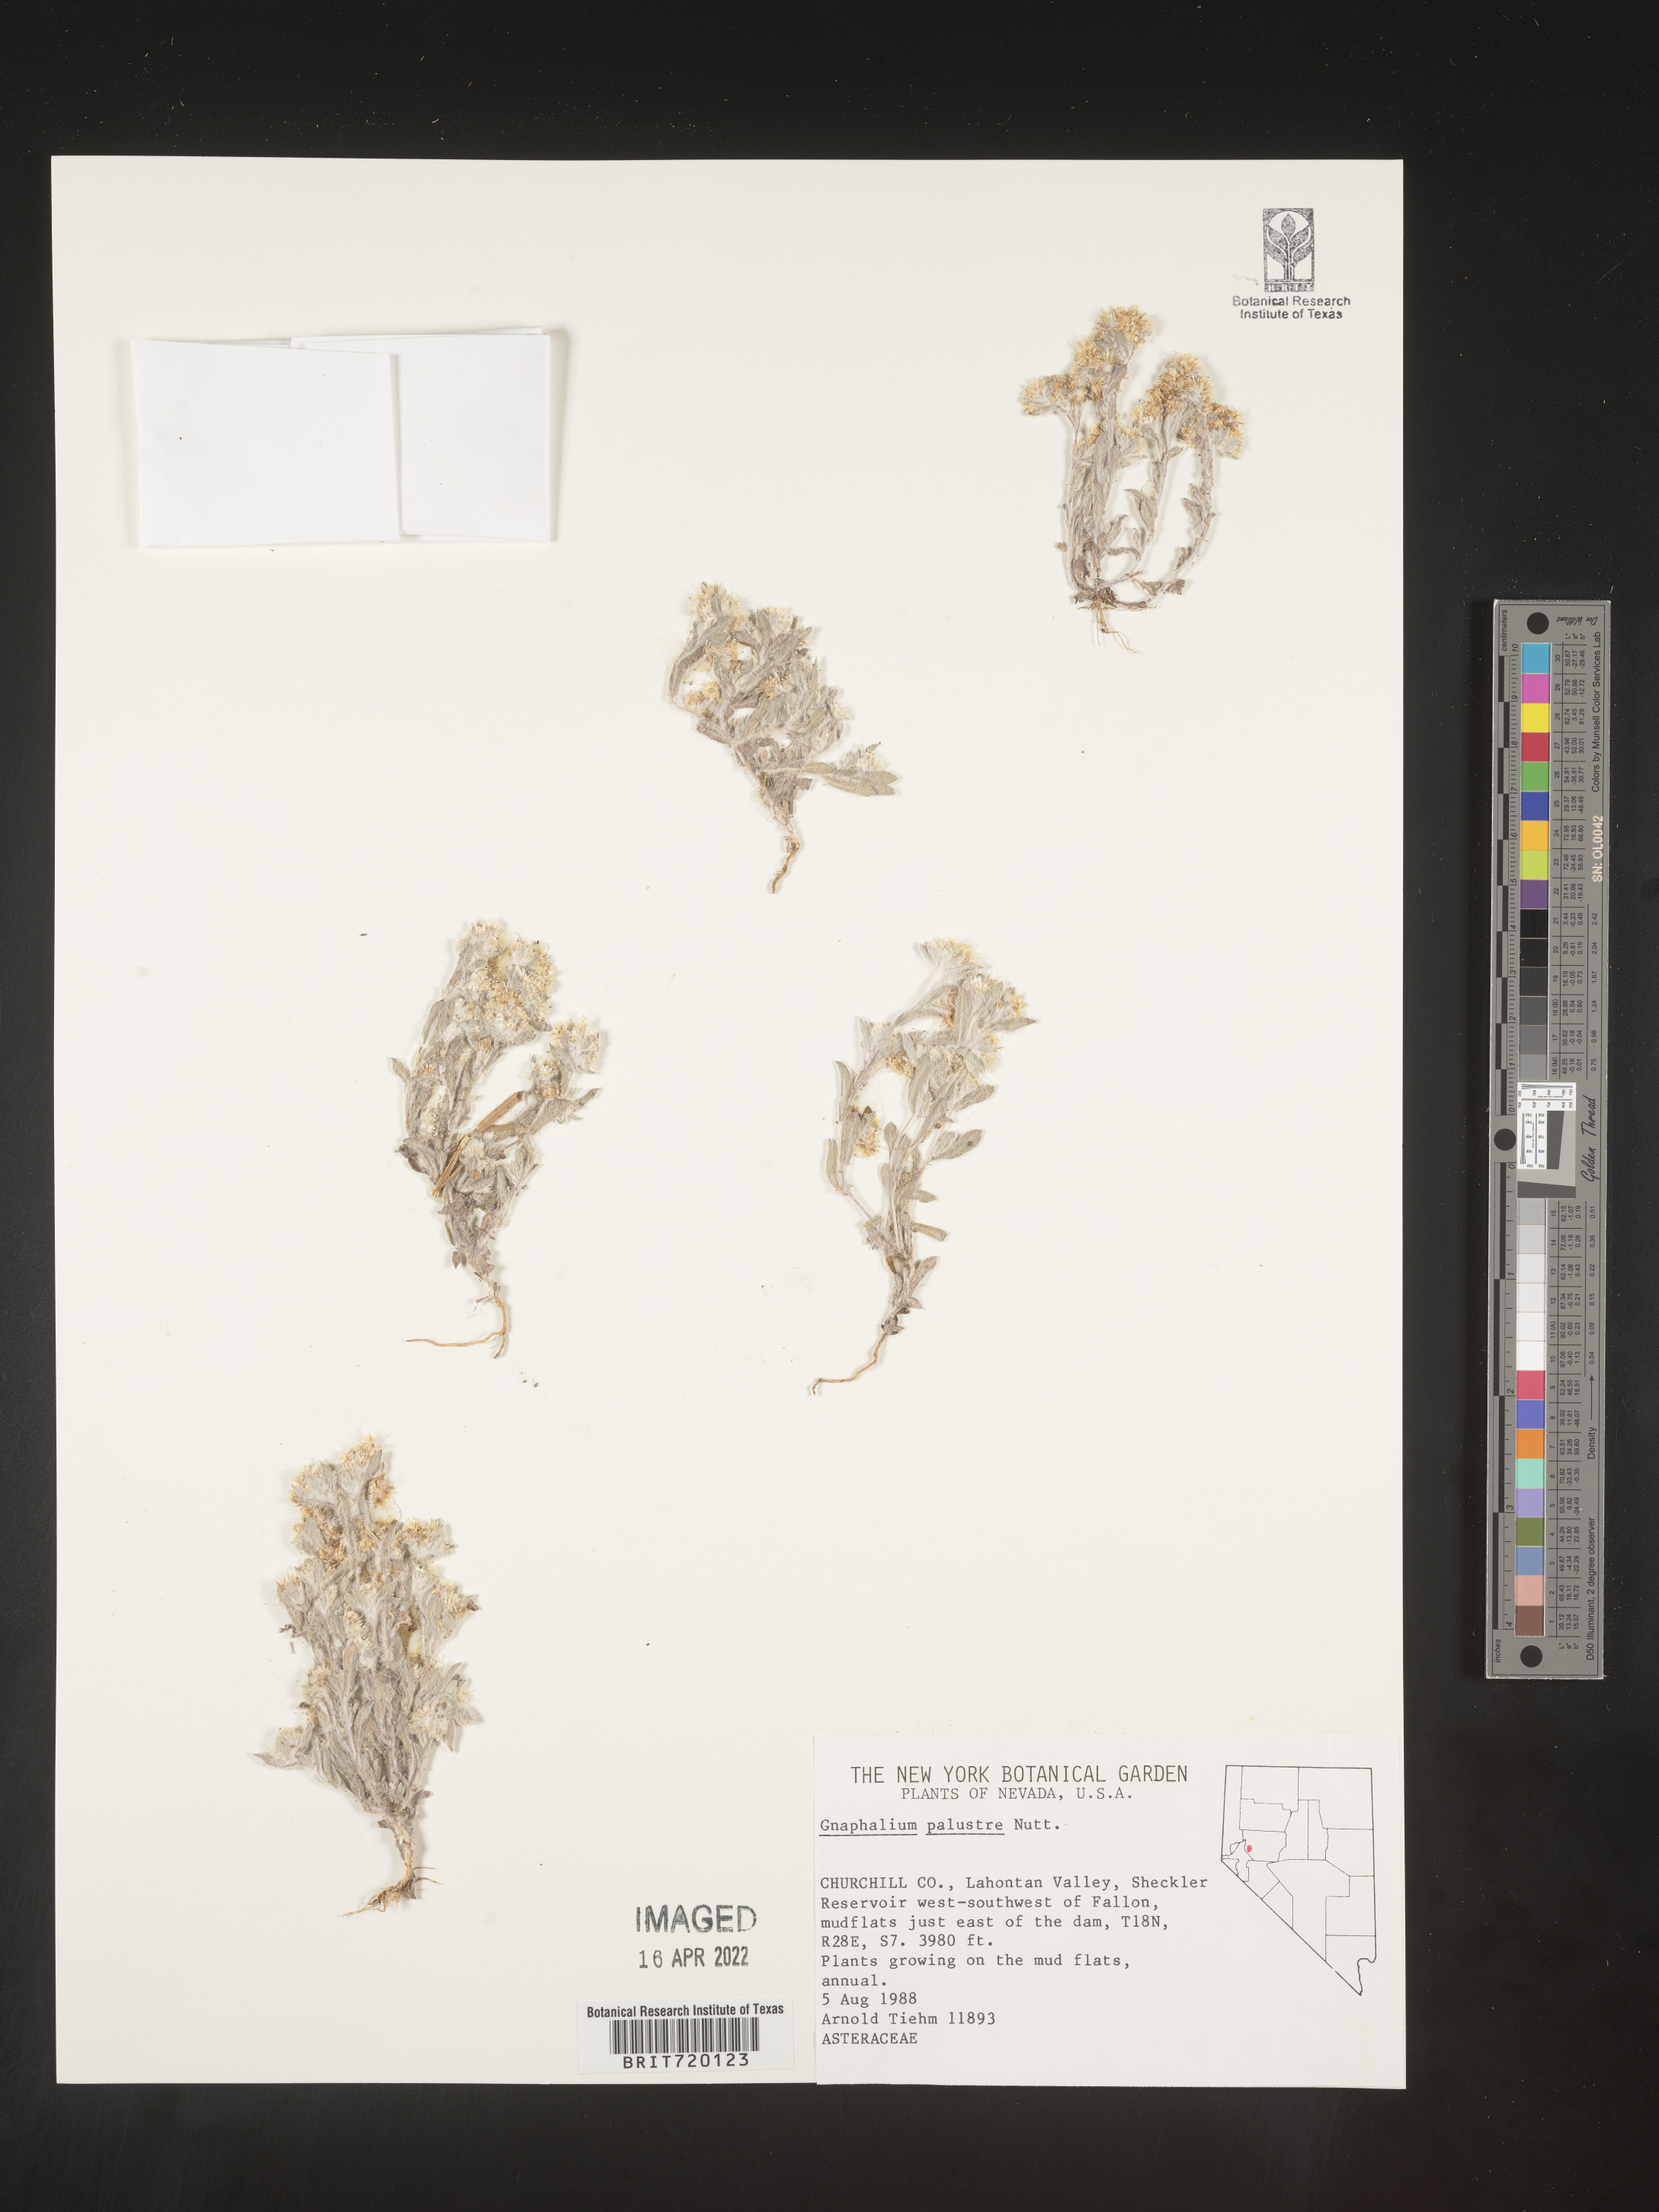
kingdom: Plantae
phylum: Tracheophyta
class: Magnoliopsida
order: Asterales
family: Asteraceae
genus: Gnaphalium
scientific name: Gnaphalium palustre
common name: Western marsh cudweed
